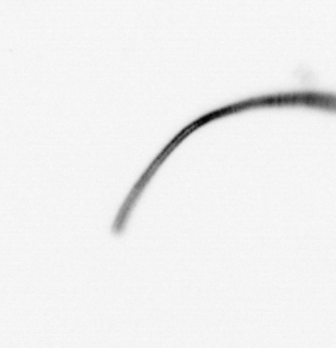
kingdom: Chromista
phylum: Ochrophyta
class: Bacillariophyceae
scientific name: Bacillariophyceae
